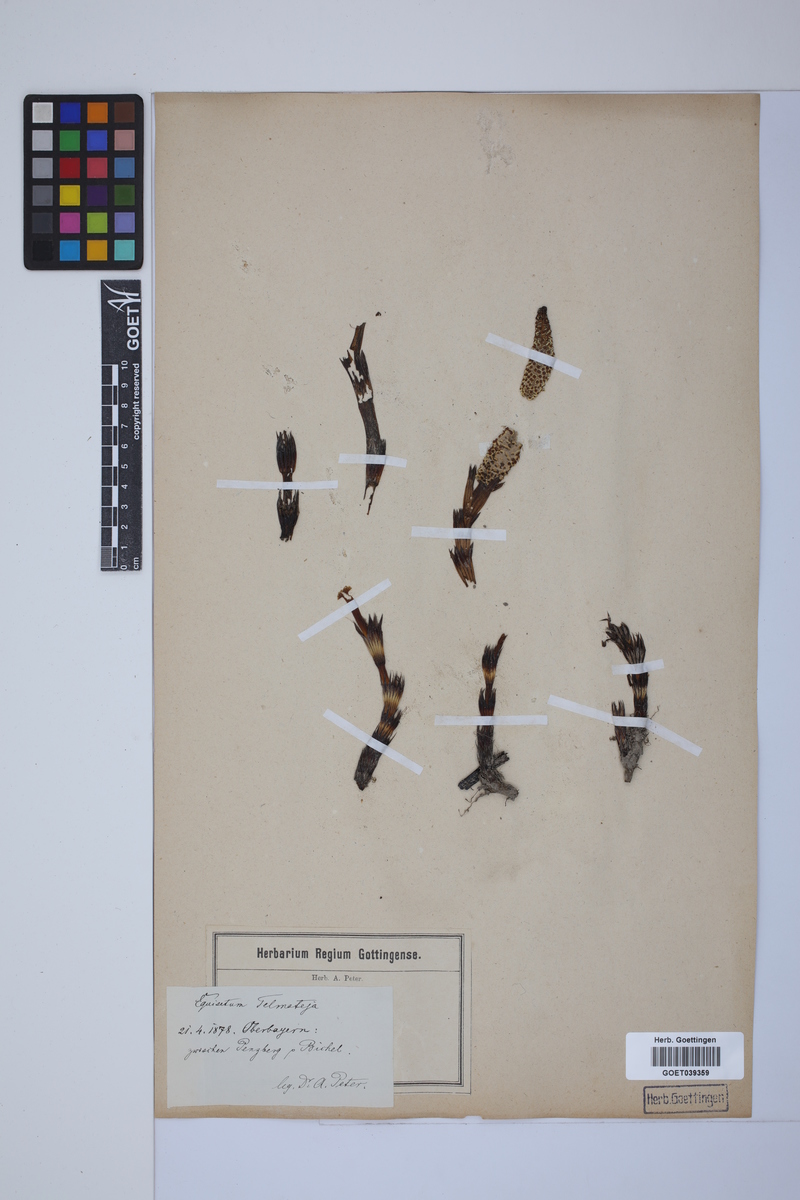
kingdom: Plantae
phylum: Tracheophyta
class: Polypodiopsida
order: Equisetales
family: Equisetaceae
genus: Equisetum
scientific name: Equisetum telmateia
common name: Great horsetail
